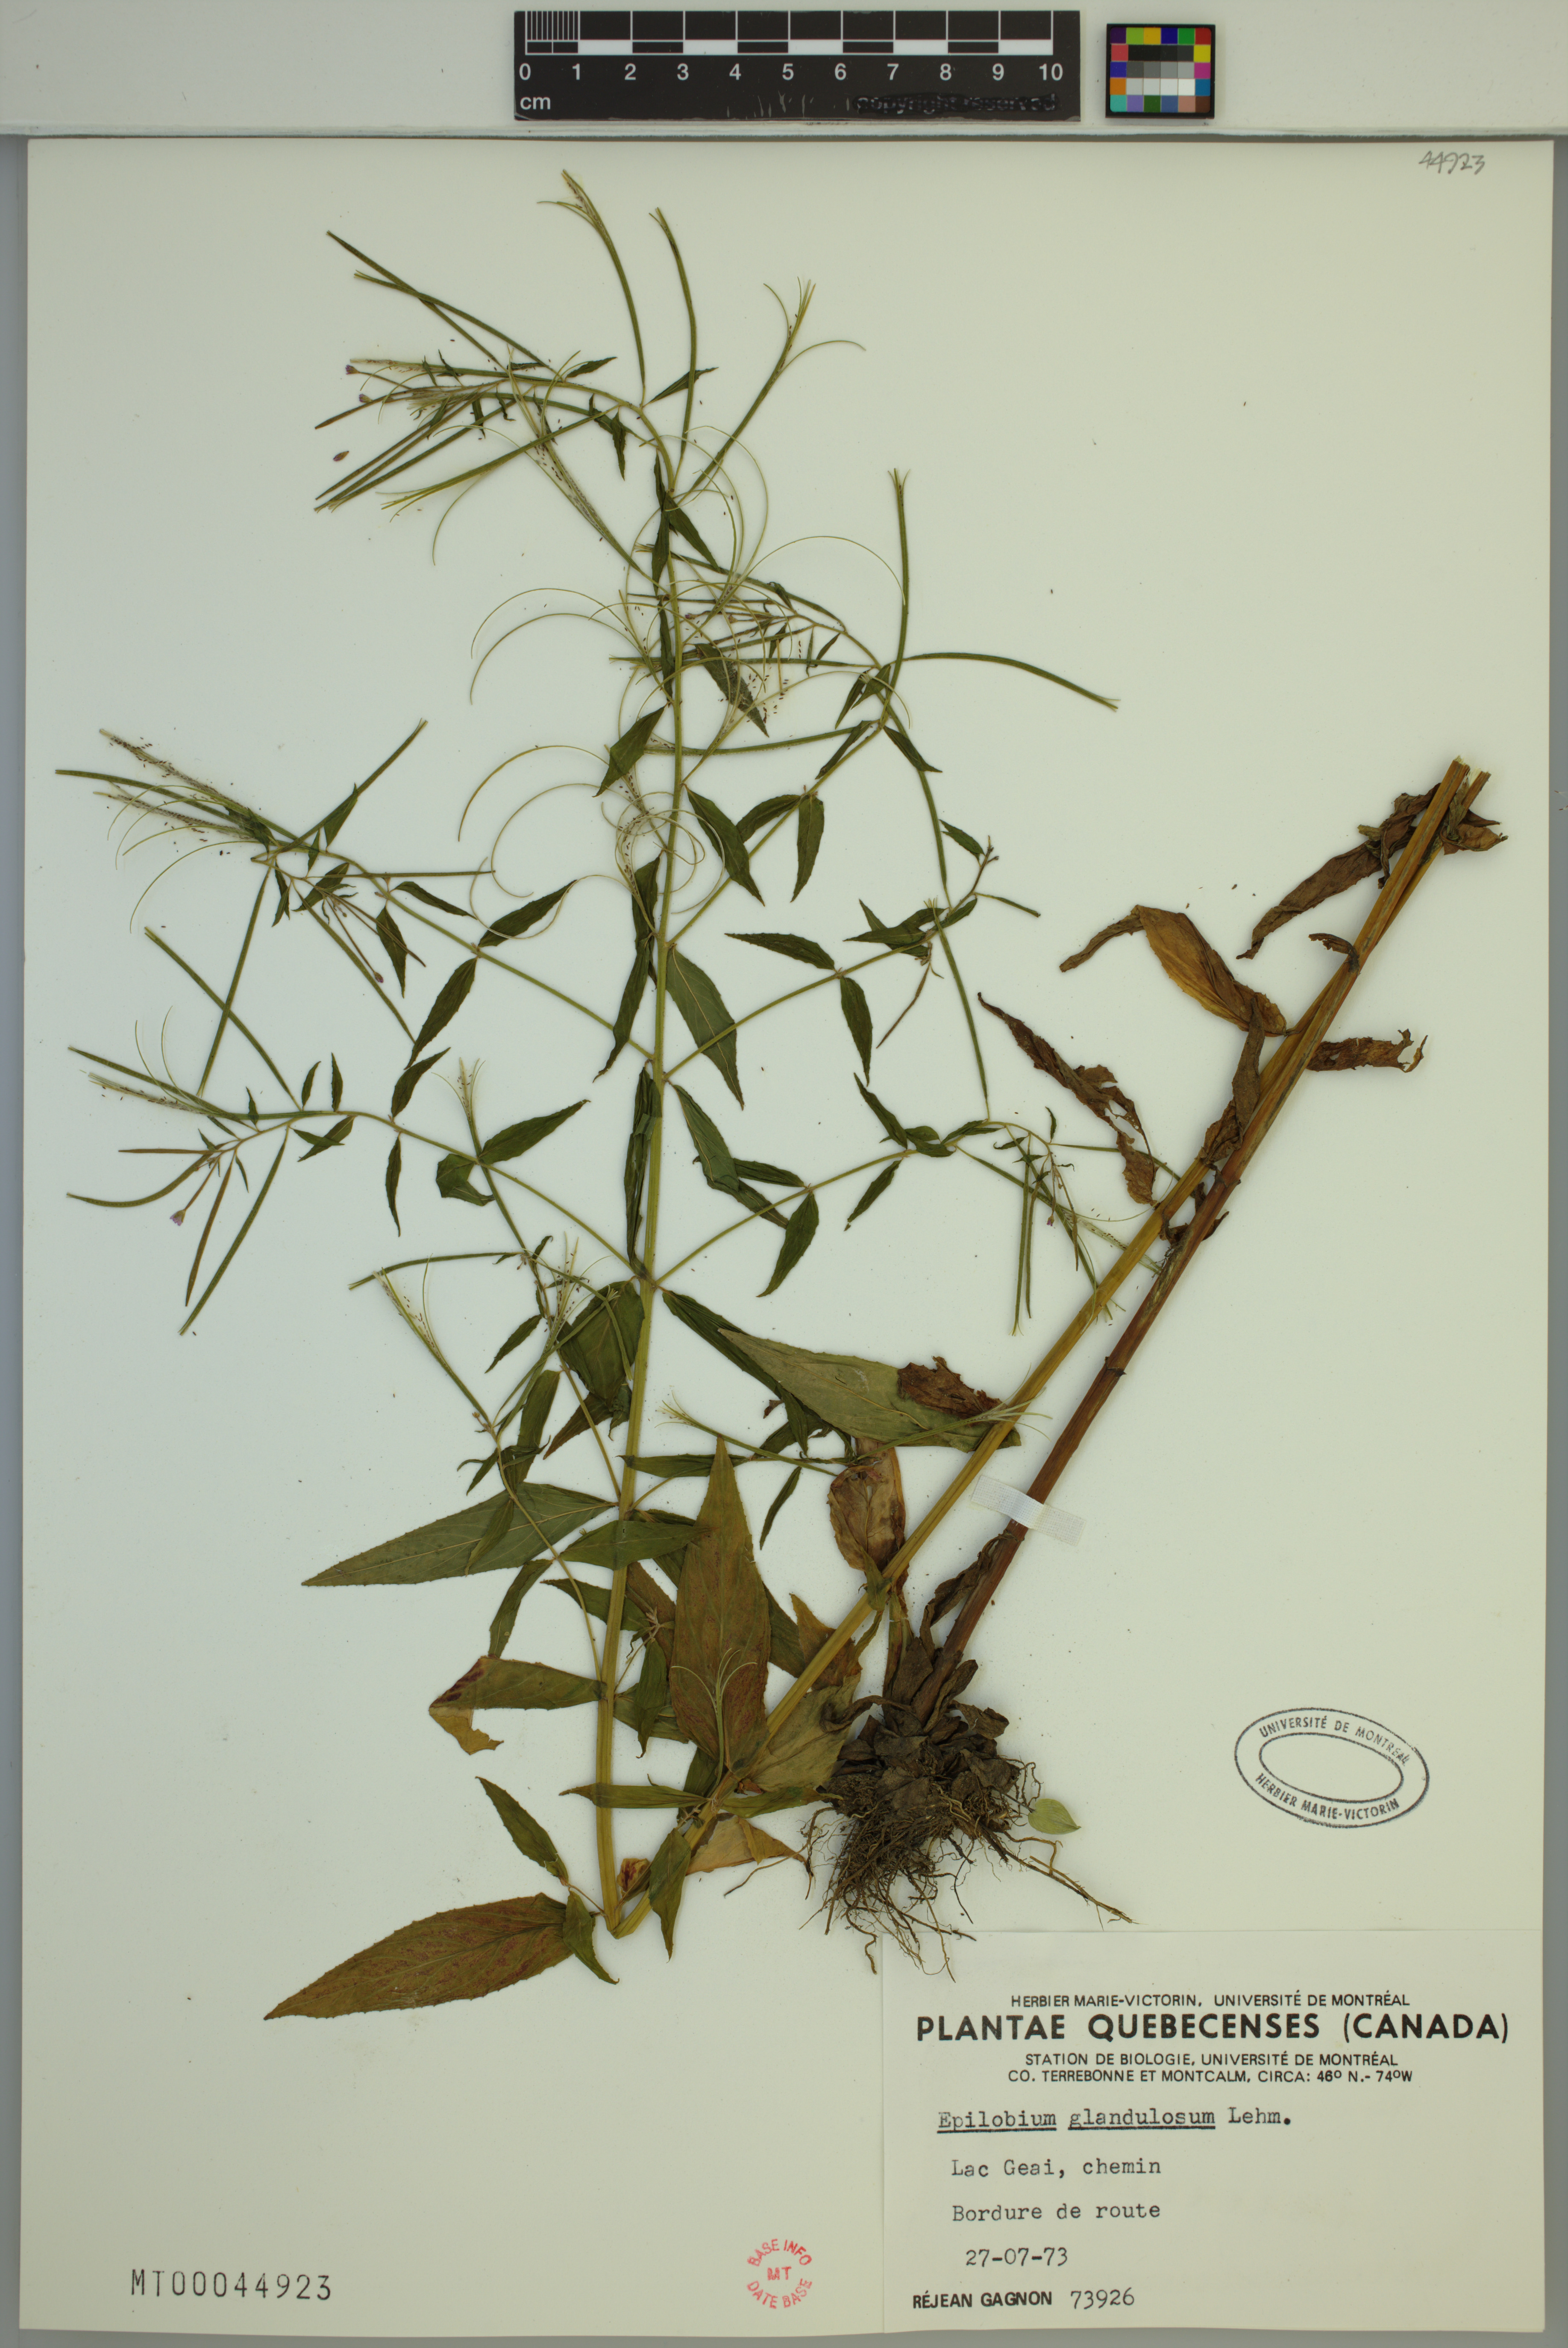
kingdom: Plantae
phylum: Tracheophyta
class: Magnoliopsida
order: Myrtales
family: Onagraceae
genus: Epilobium
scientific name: Epilobium ciliatum
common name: American willowherb
